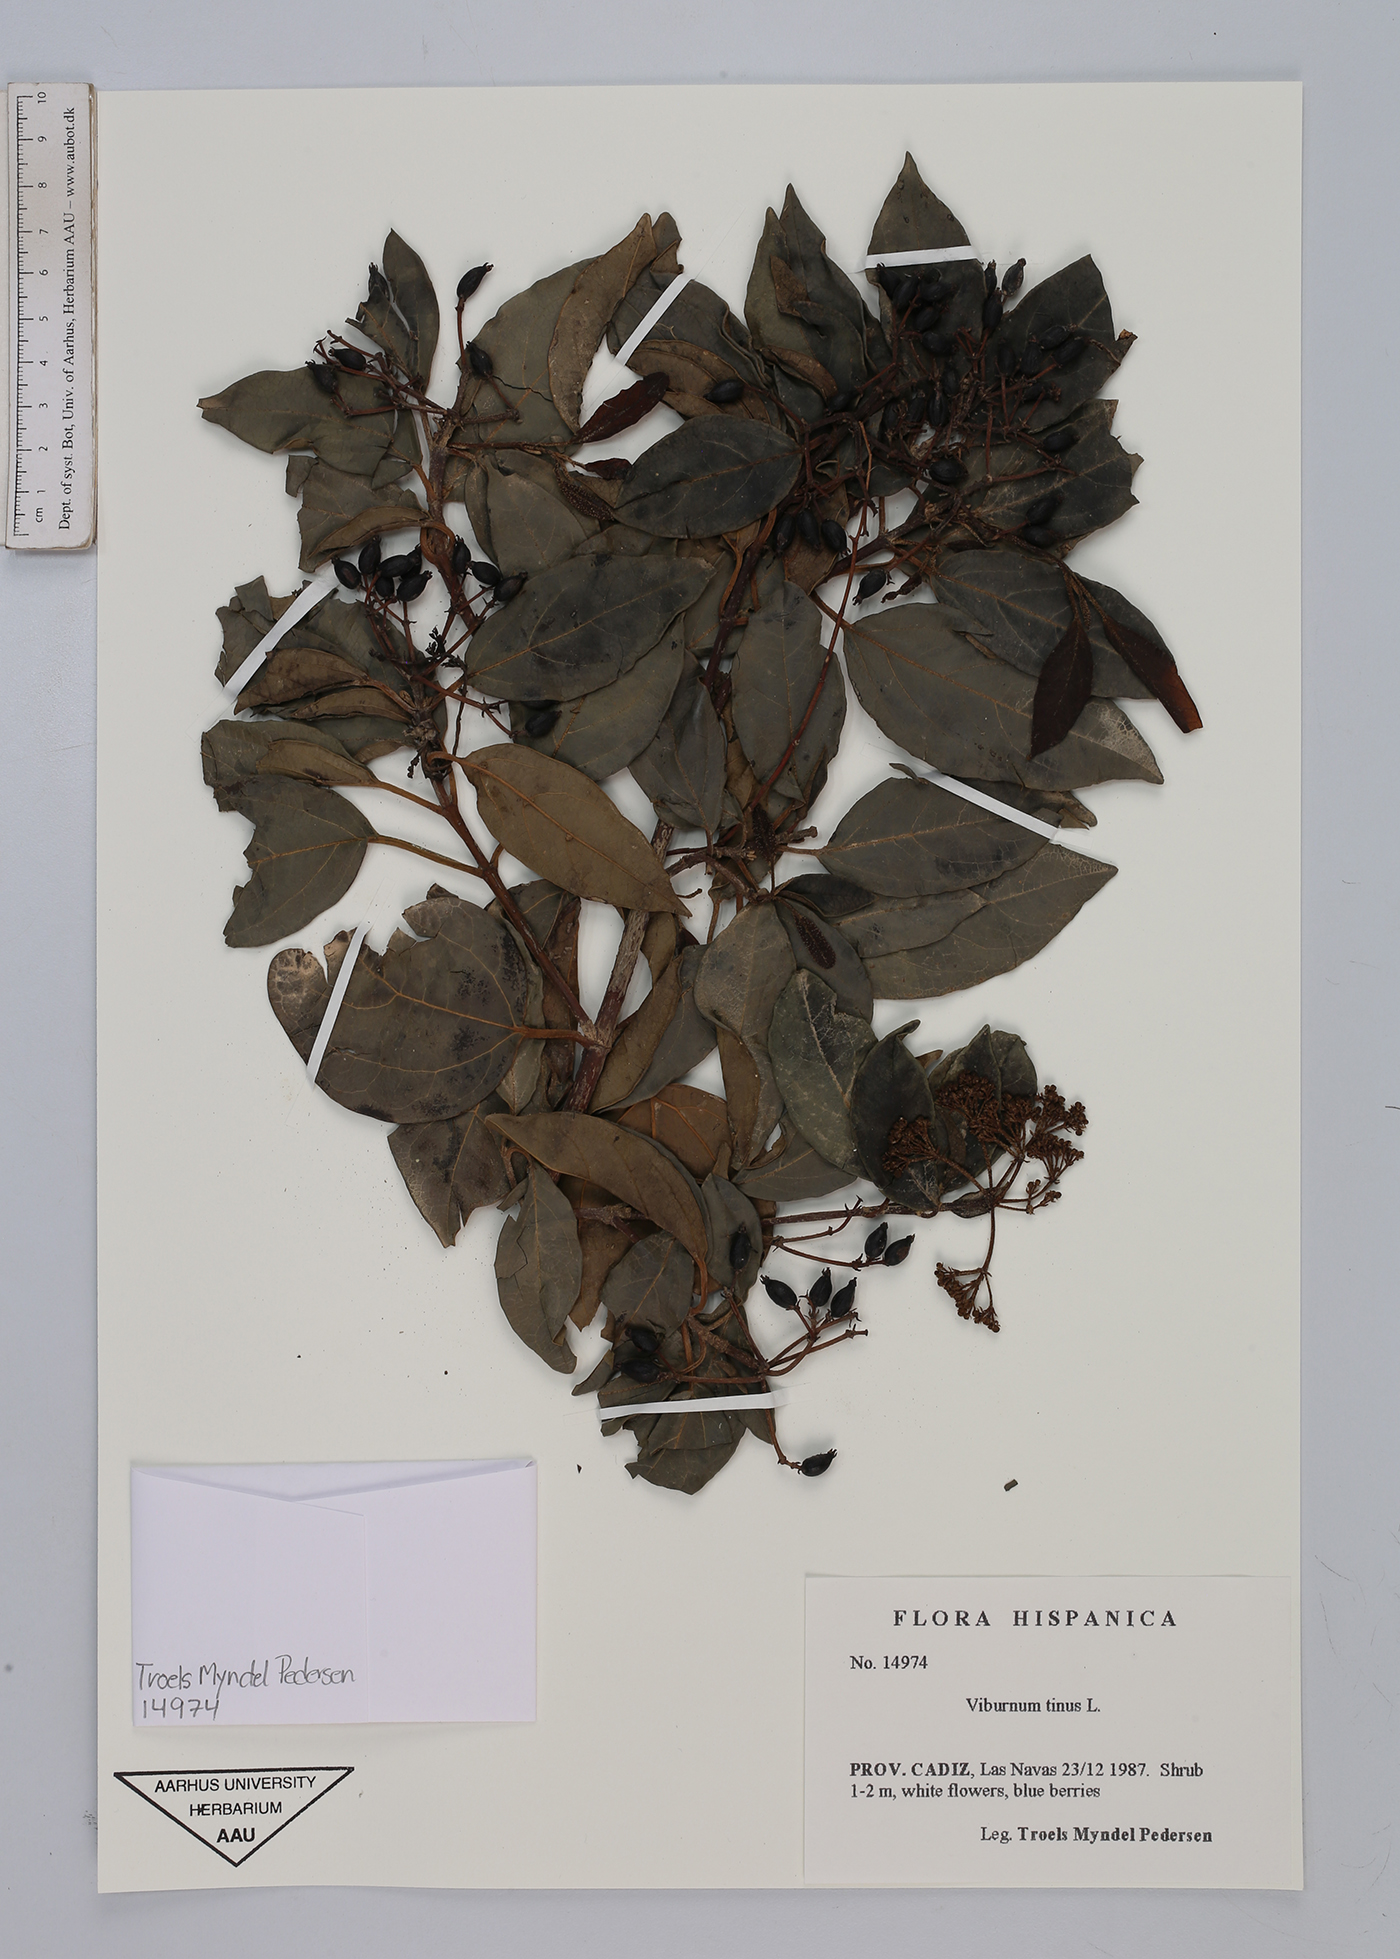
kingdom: Plantae
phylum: Tracheophyta
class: Magnoliopsida
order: Dipsacales
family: Viburnaceae
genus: Viburnum
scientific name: Viburnum tinus
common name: Laurustinus
